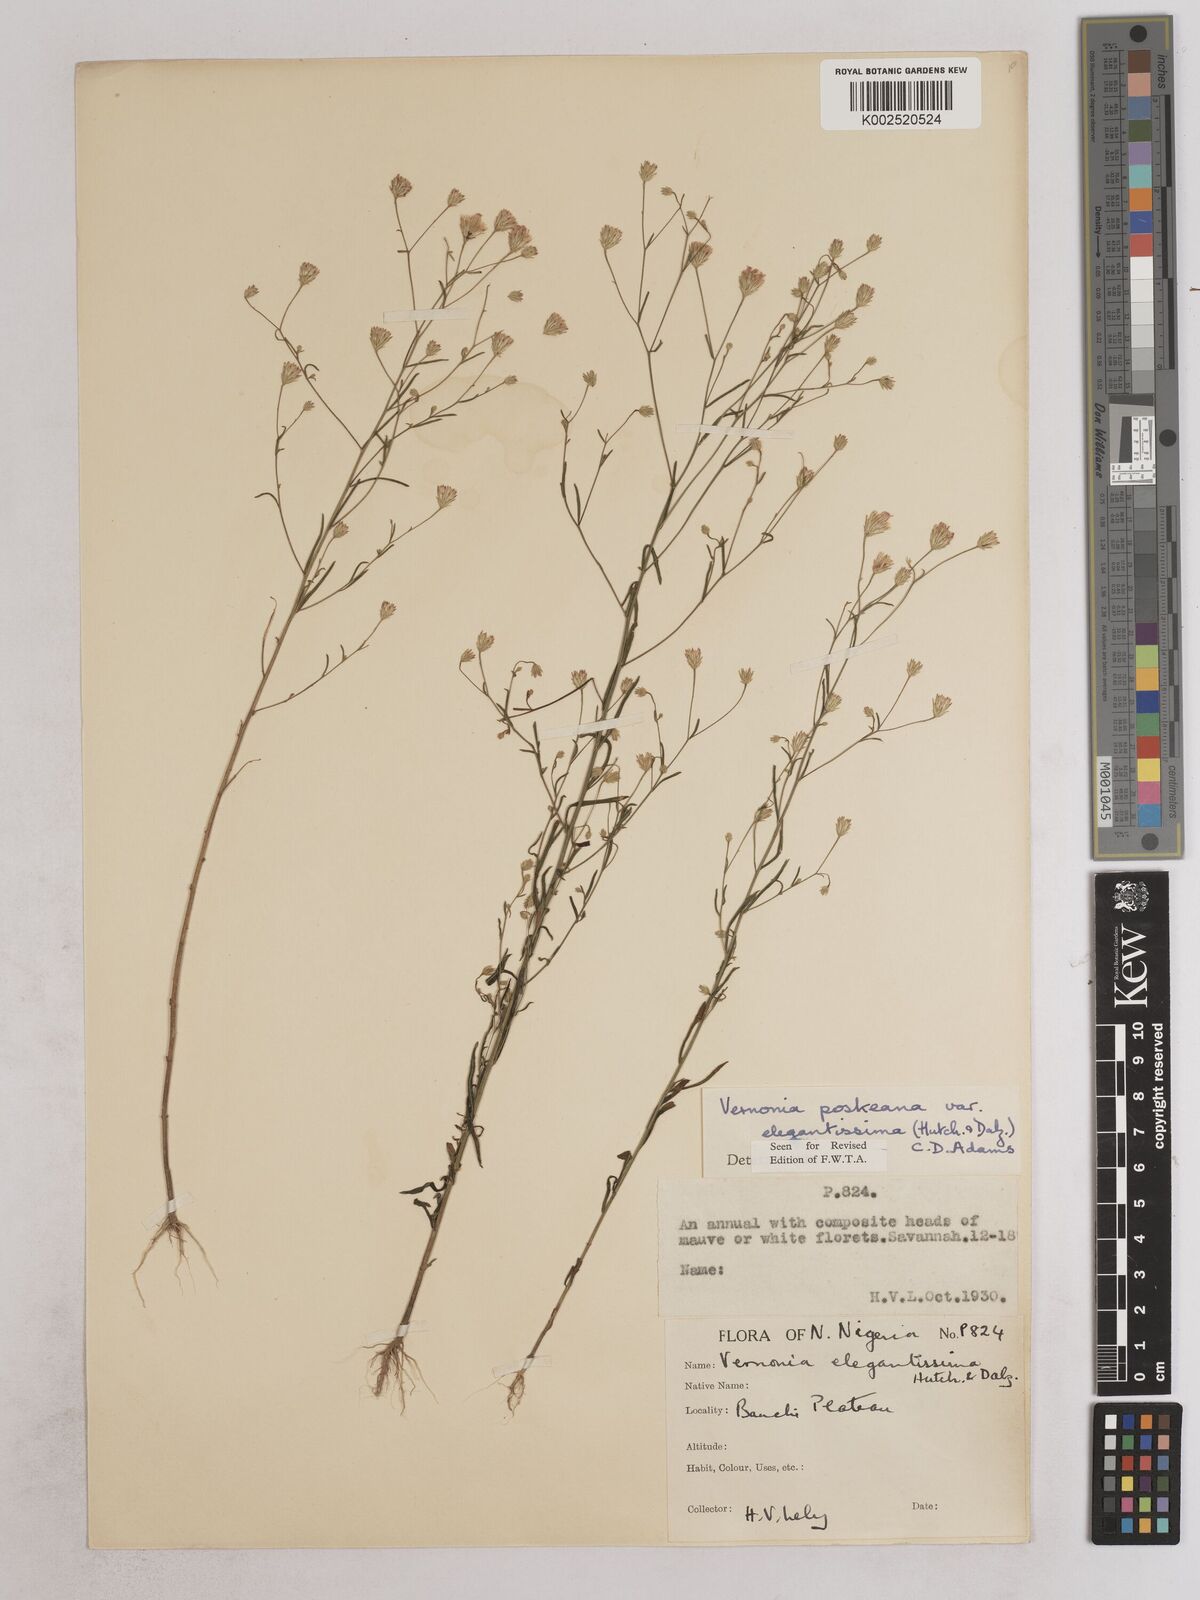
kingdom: Plantae
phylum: Tracheophyta
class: Magnoliopsida
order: Asterales
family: Asteraceae
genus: Crystallopollen
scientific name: Crystallopollen angustifolium
